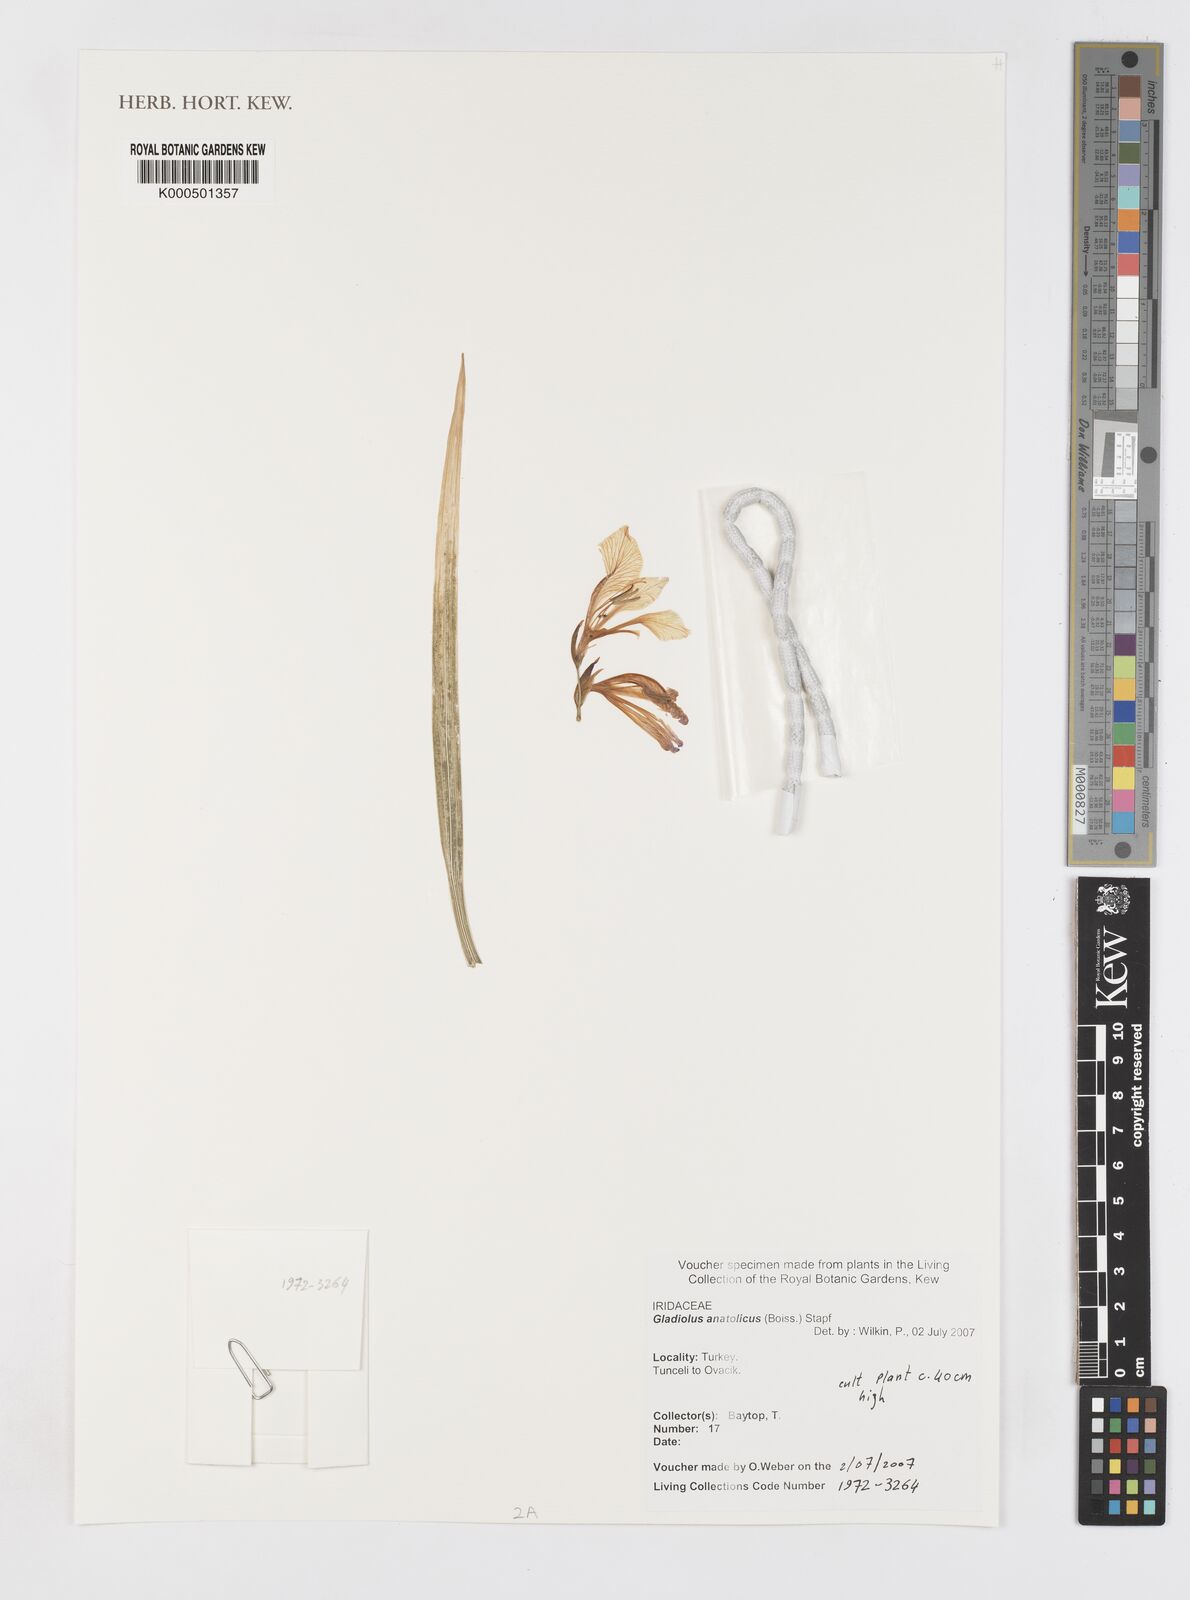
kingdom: Plantae
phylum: Tracheophyta
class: Liliopsida
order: Asparagales
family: Iridaceae
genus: Gladiolus
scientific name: Gladiolus illyricus
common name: Wild gladiolus
